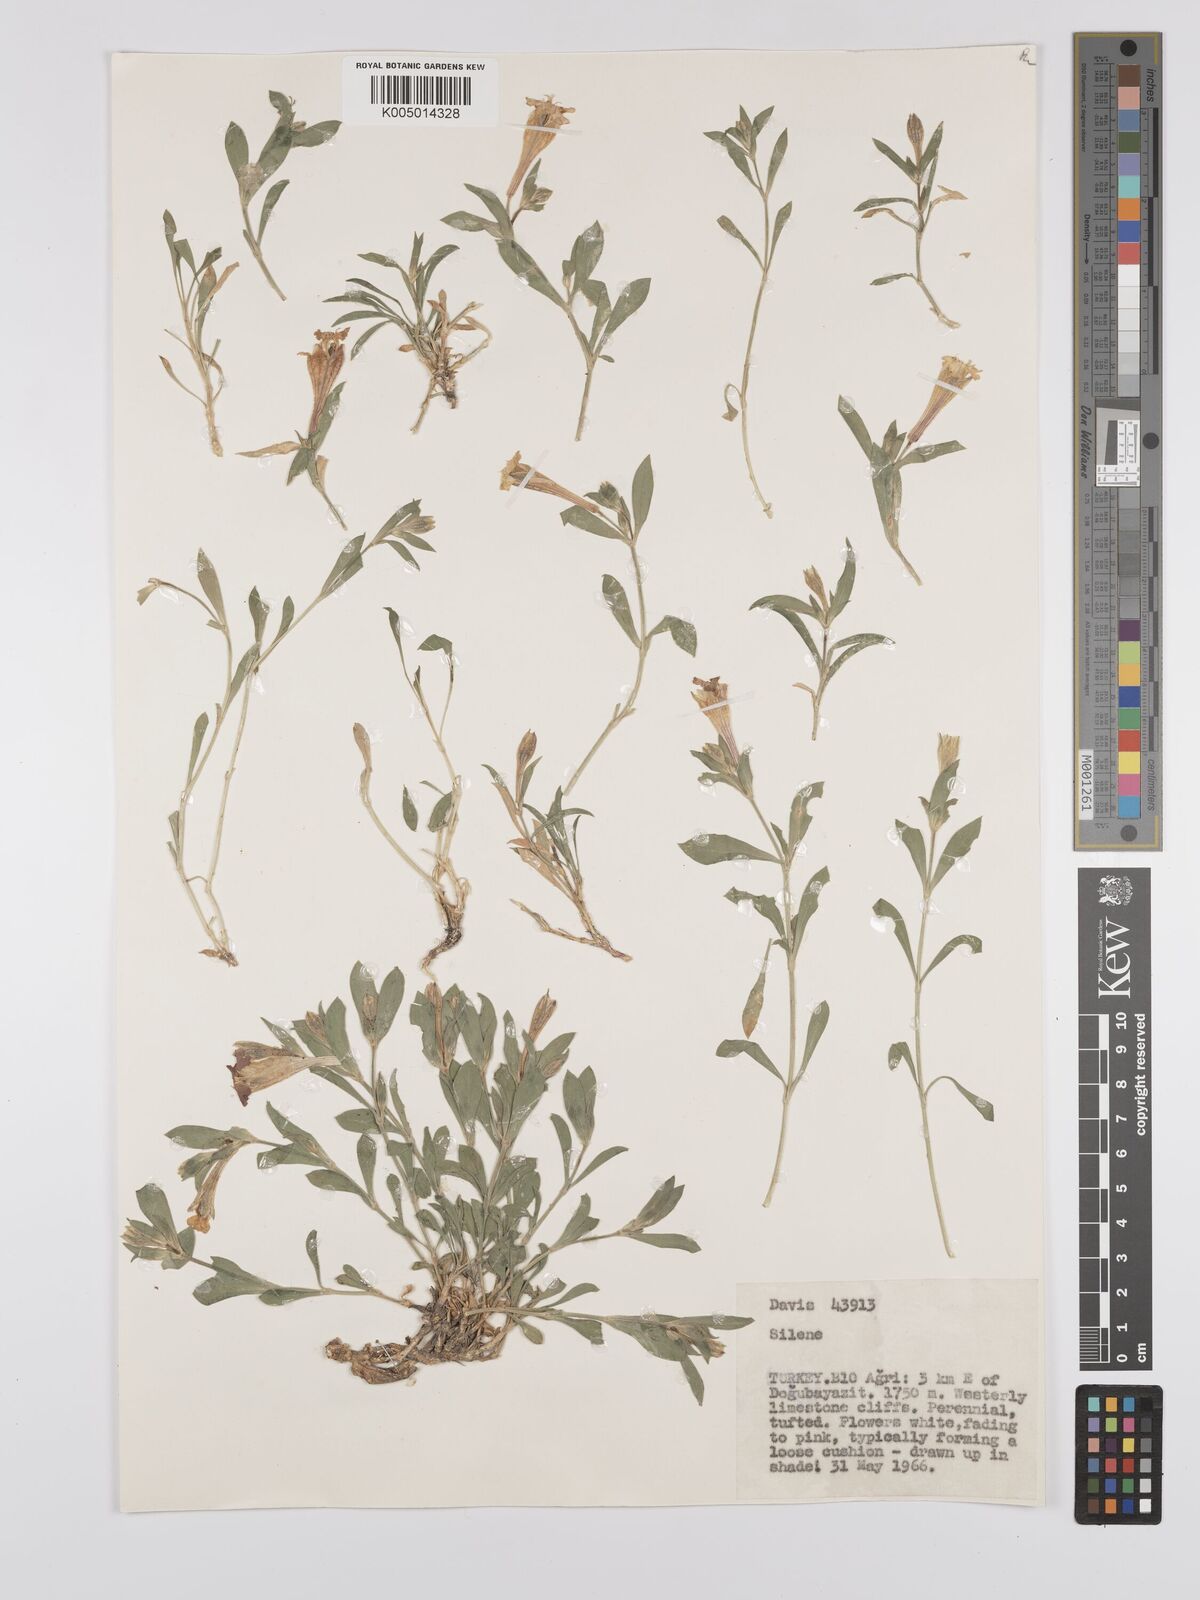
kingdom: Plantae
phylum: Tracheophyta
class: Magnoliopsida
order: Caryophyllales
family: Caryophyllaceae
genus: Silene
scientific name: Silene
